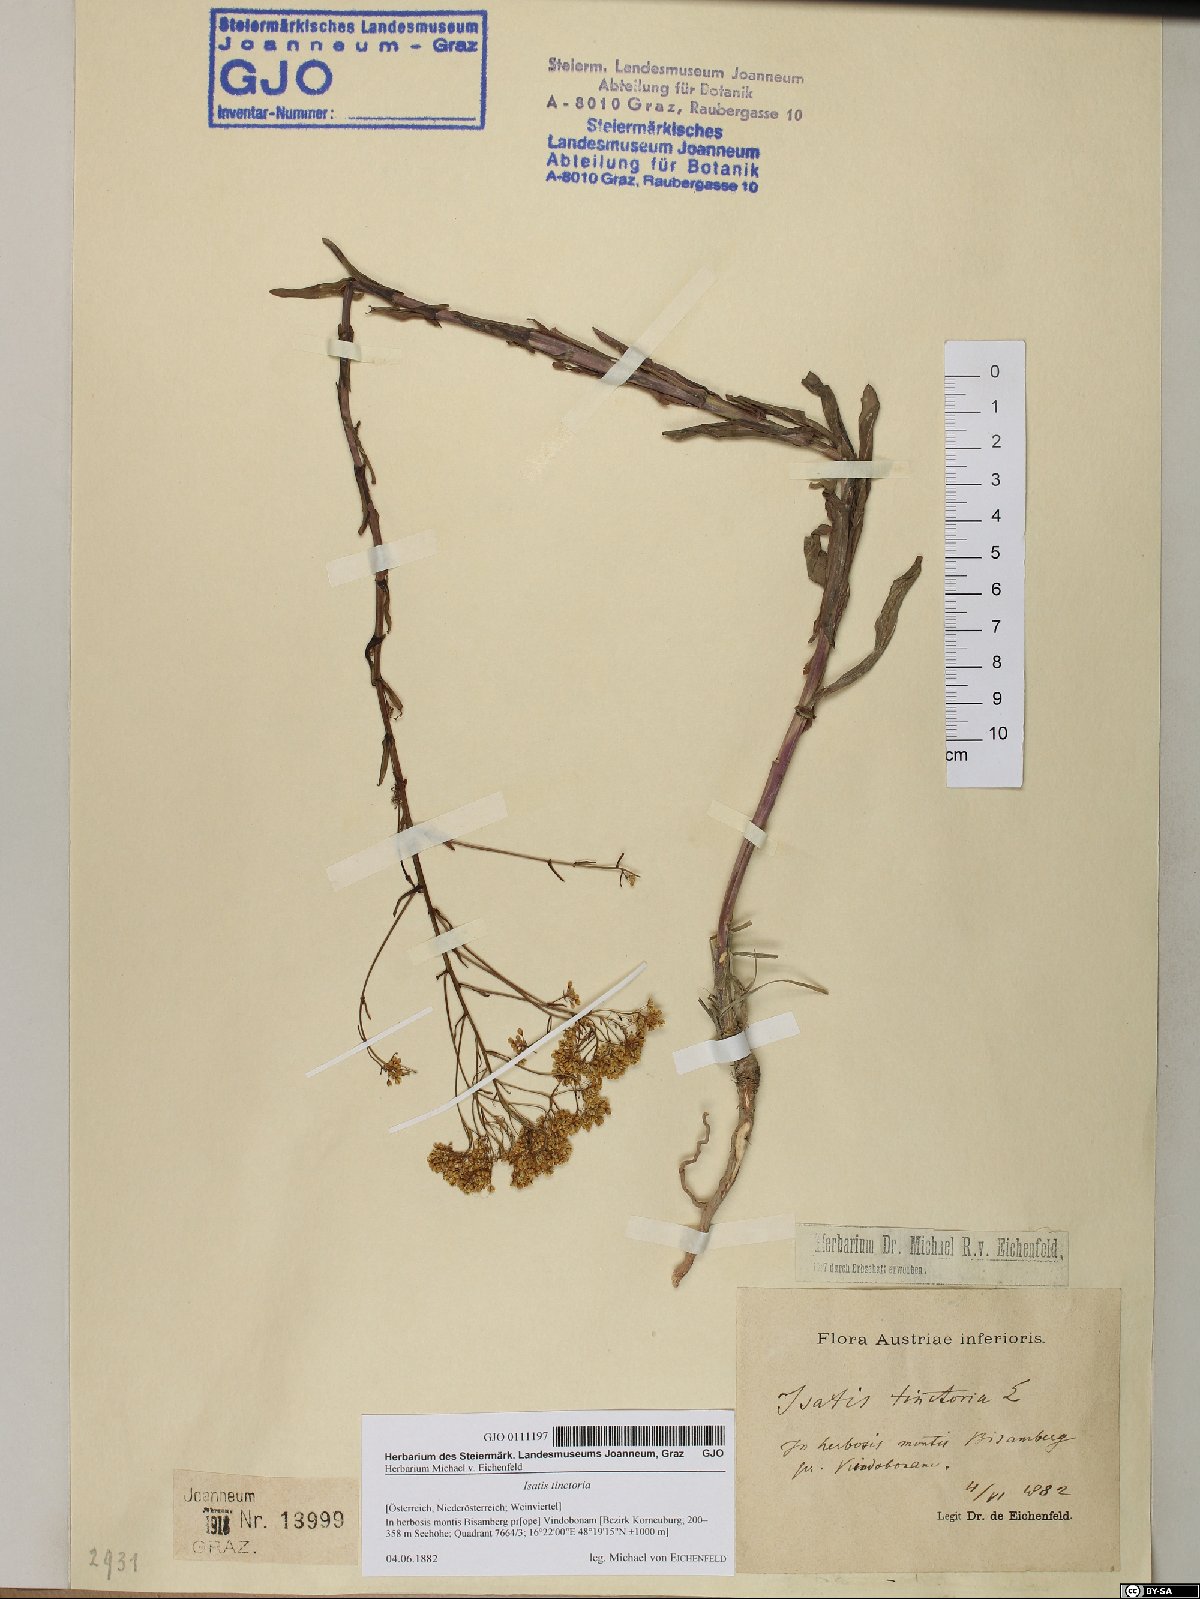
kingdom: Plantae
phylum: Tracheophyta
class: Magnoliopsida
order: Brassicales
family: Brassicaceae
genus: Isatis
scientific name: Isatis tinctoria
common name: Woad
